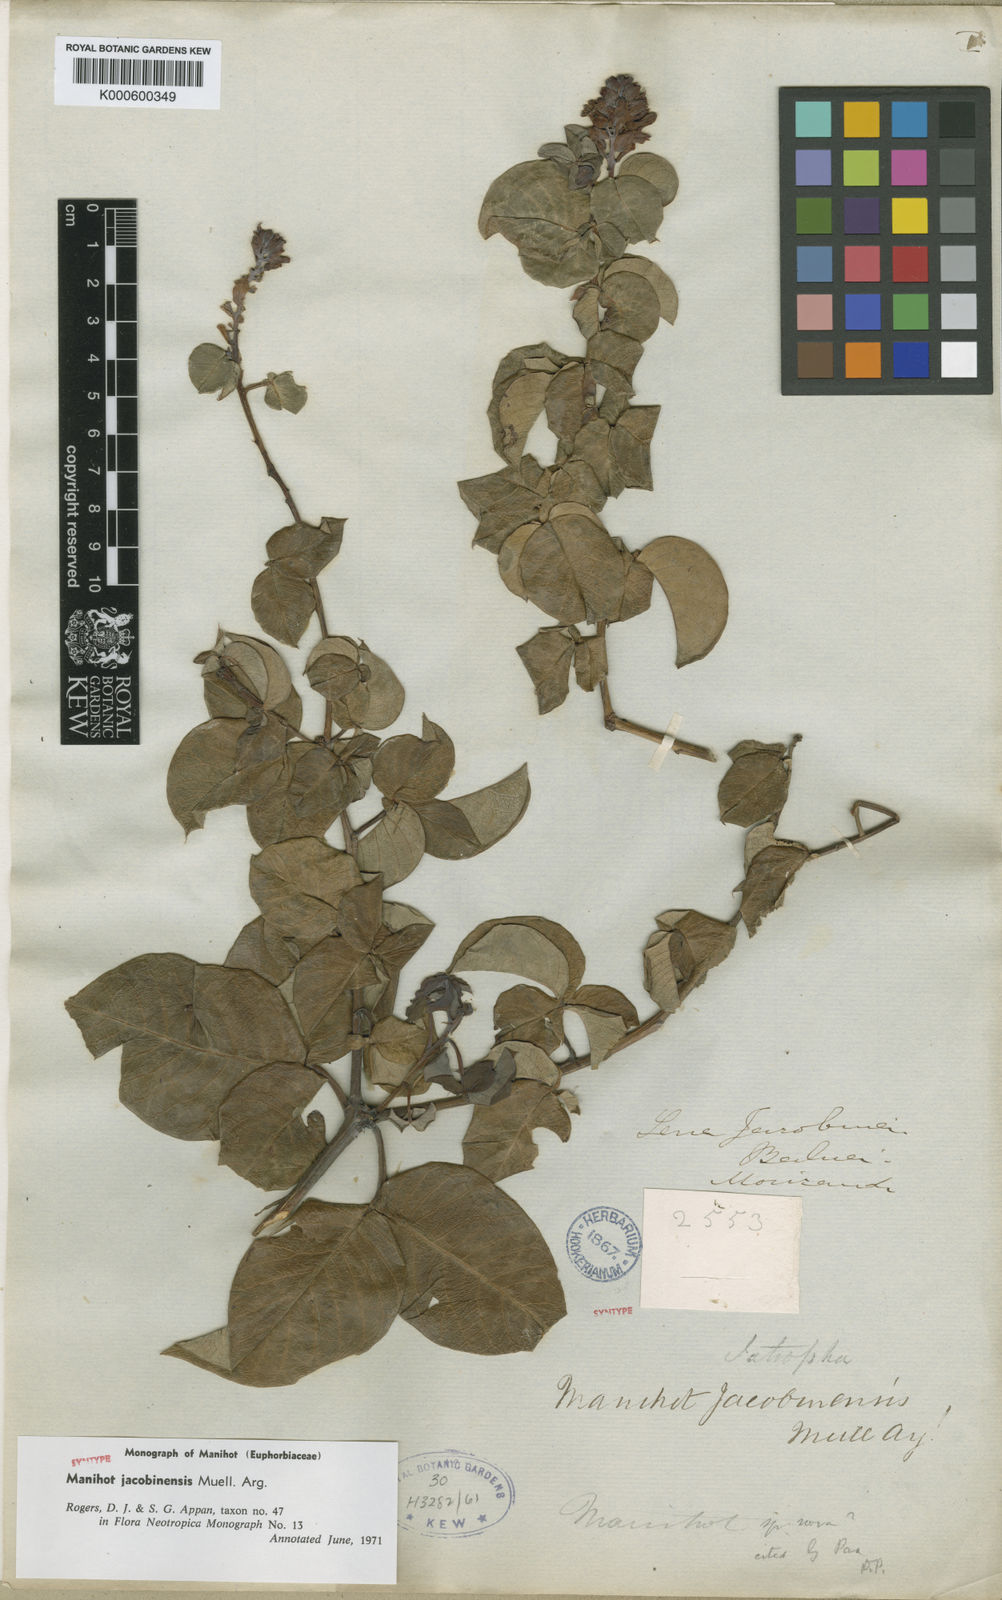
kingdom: Plantae
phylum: Tracheophyta
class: Magnoliopsida
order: Malpighiales
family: Euphorbiaceae
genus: Manihot
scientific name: Manihot
